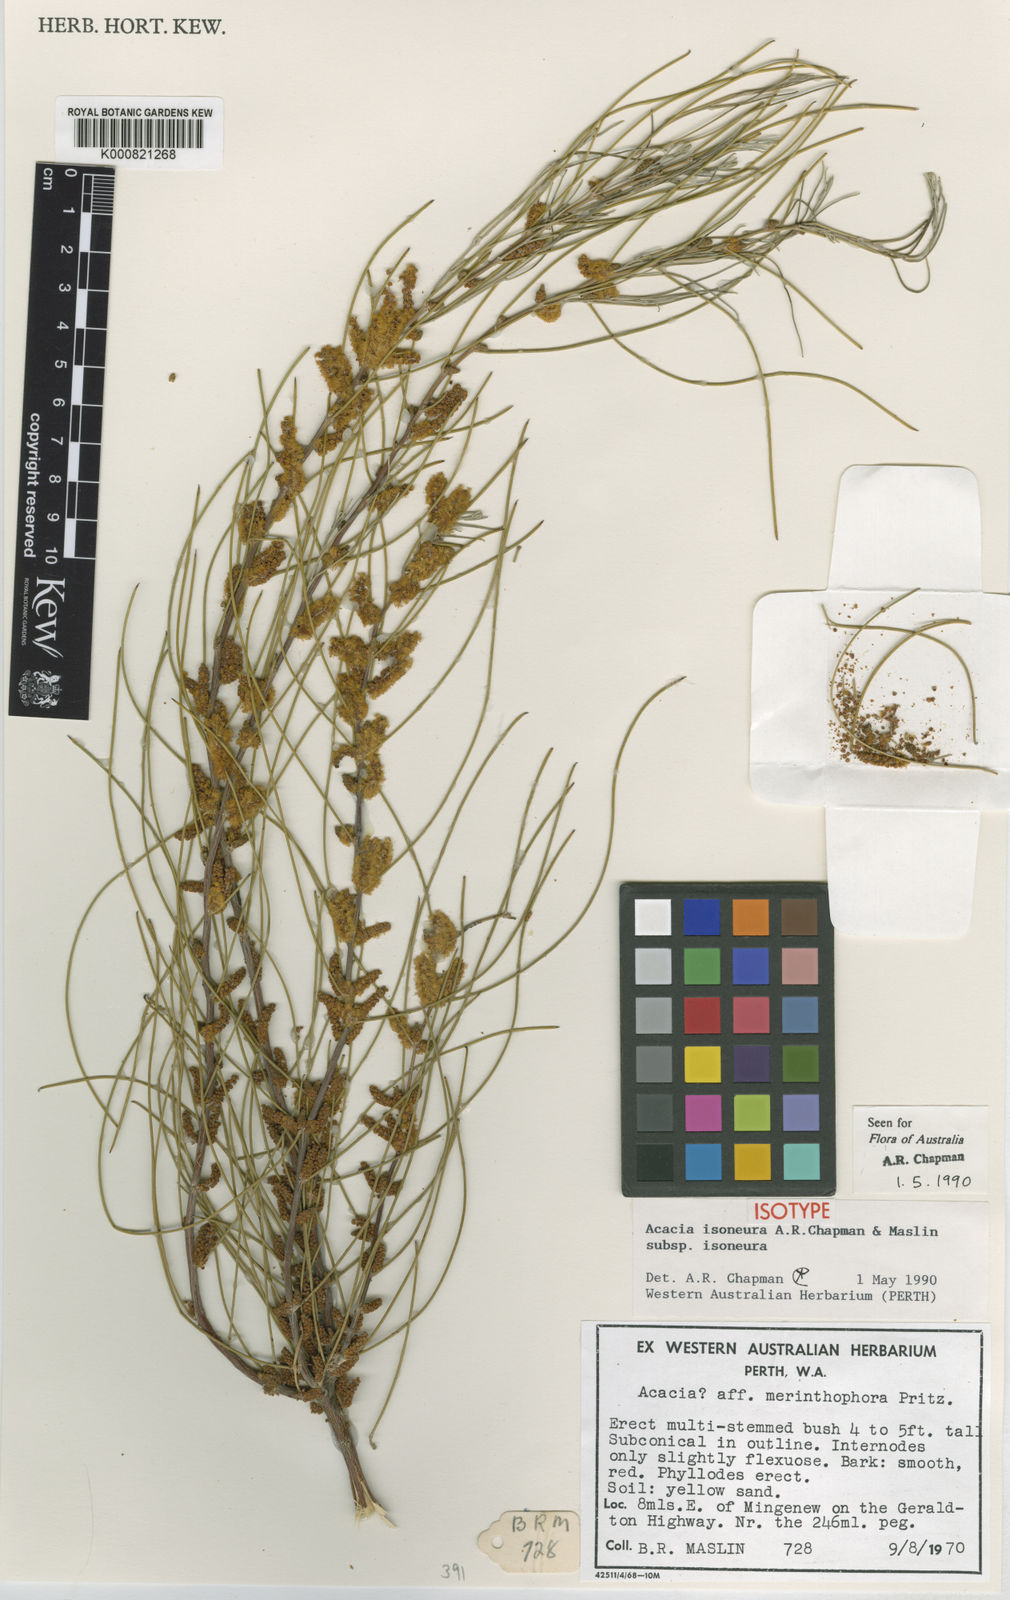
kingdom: Plantae
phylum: Tracheophyta
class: Magnoliopsida
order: Fabales
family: Fabaceae
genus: Acacia
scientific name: Acacia isoneura
